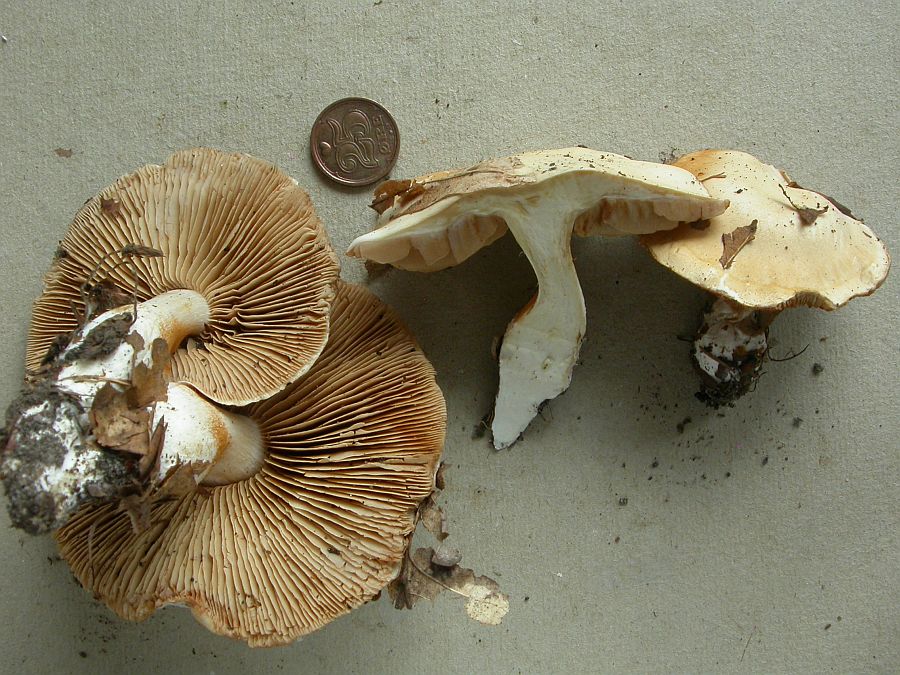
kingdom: Fungi
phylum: Basidiomycota
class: Agaricomycetes
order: Agaricales
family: Cortinariaceae
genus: Thaxterogaster
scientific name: Thaxterogaster barbatus
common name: elfenbens-slørhat
